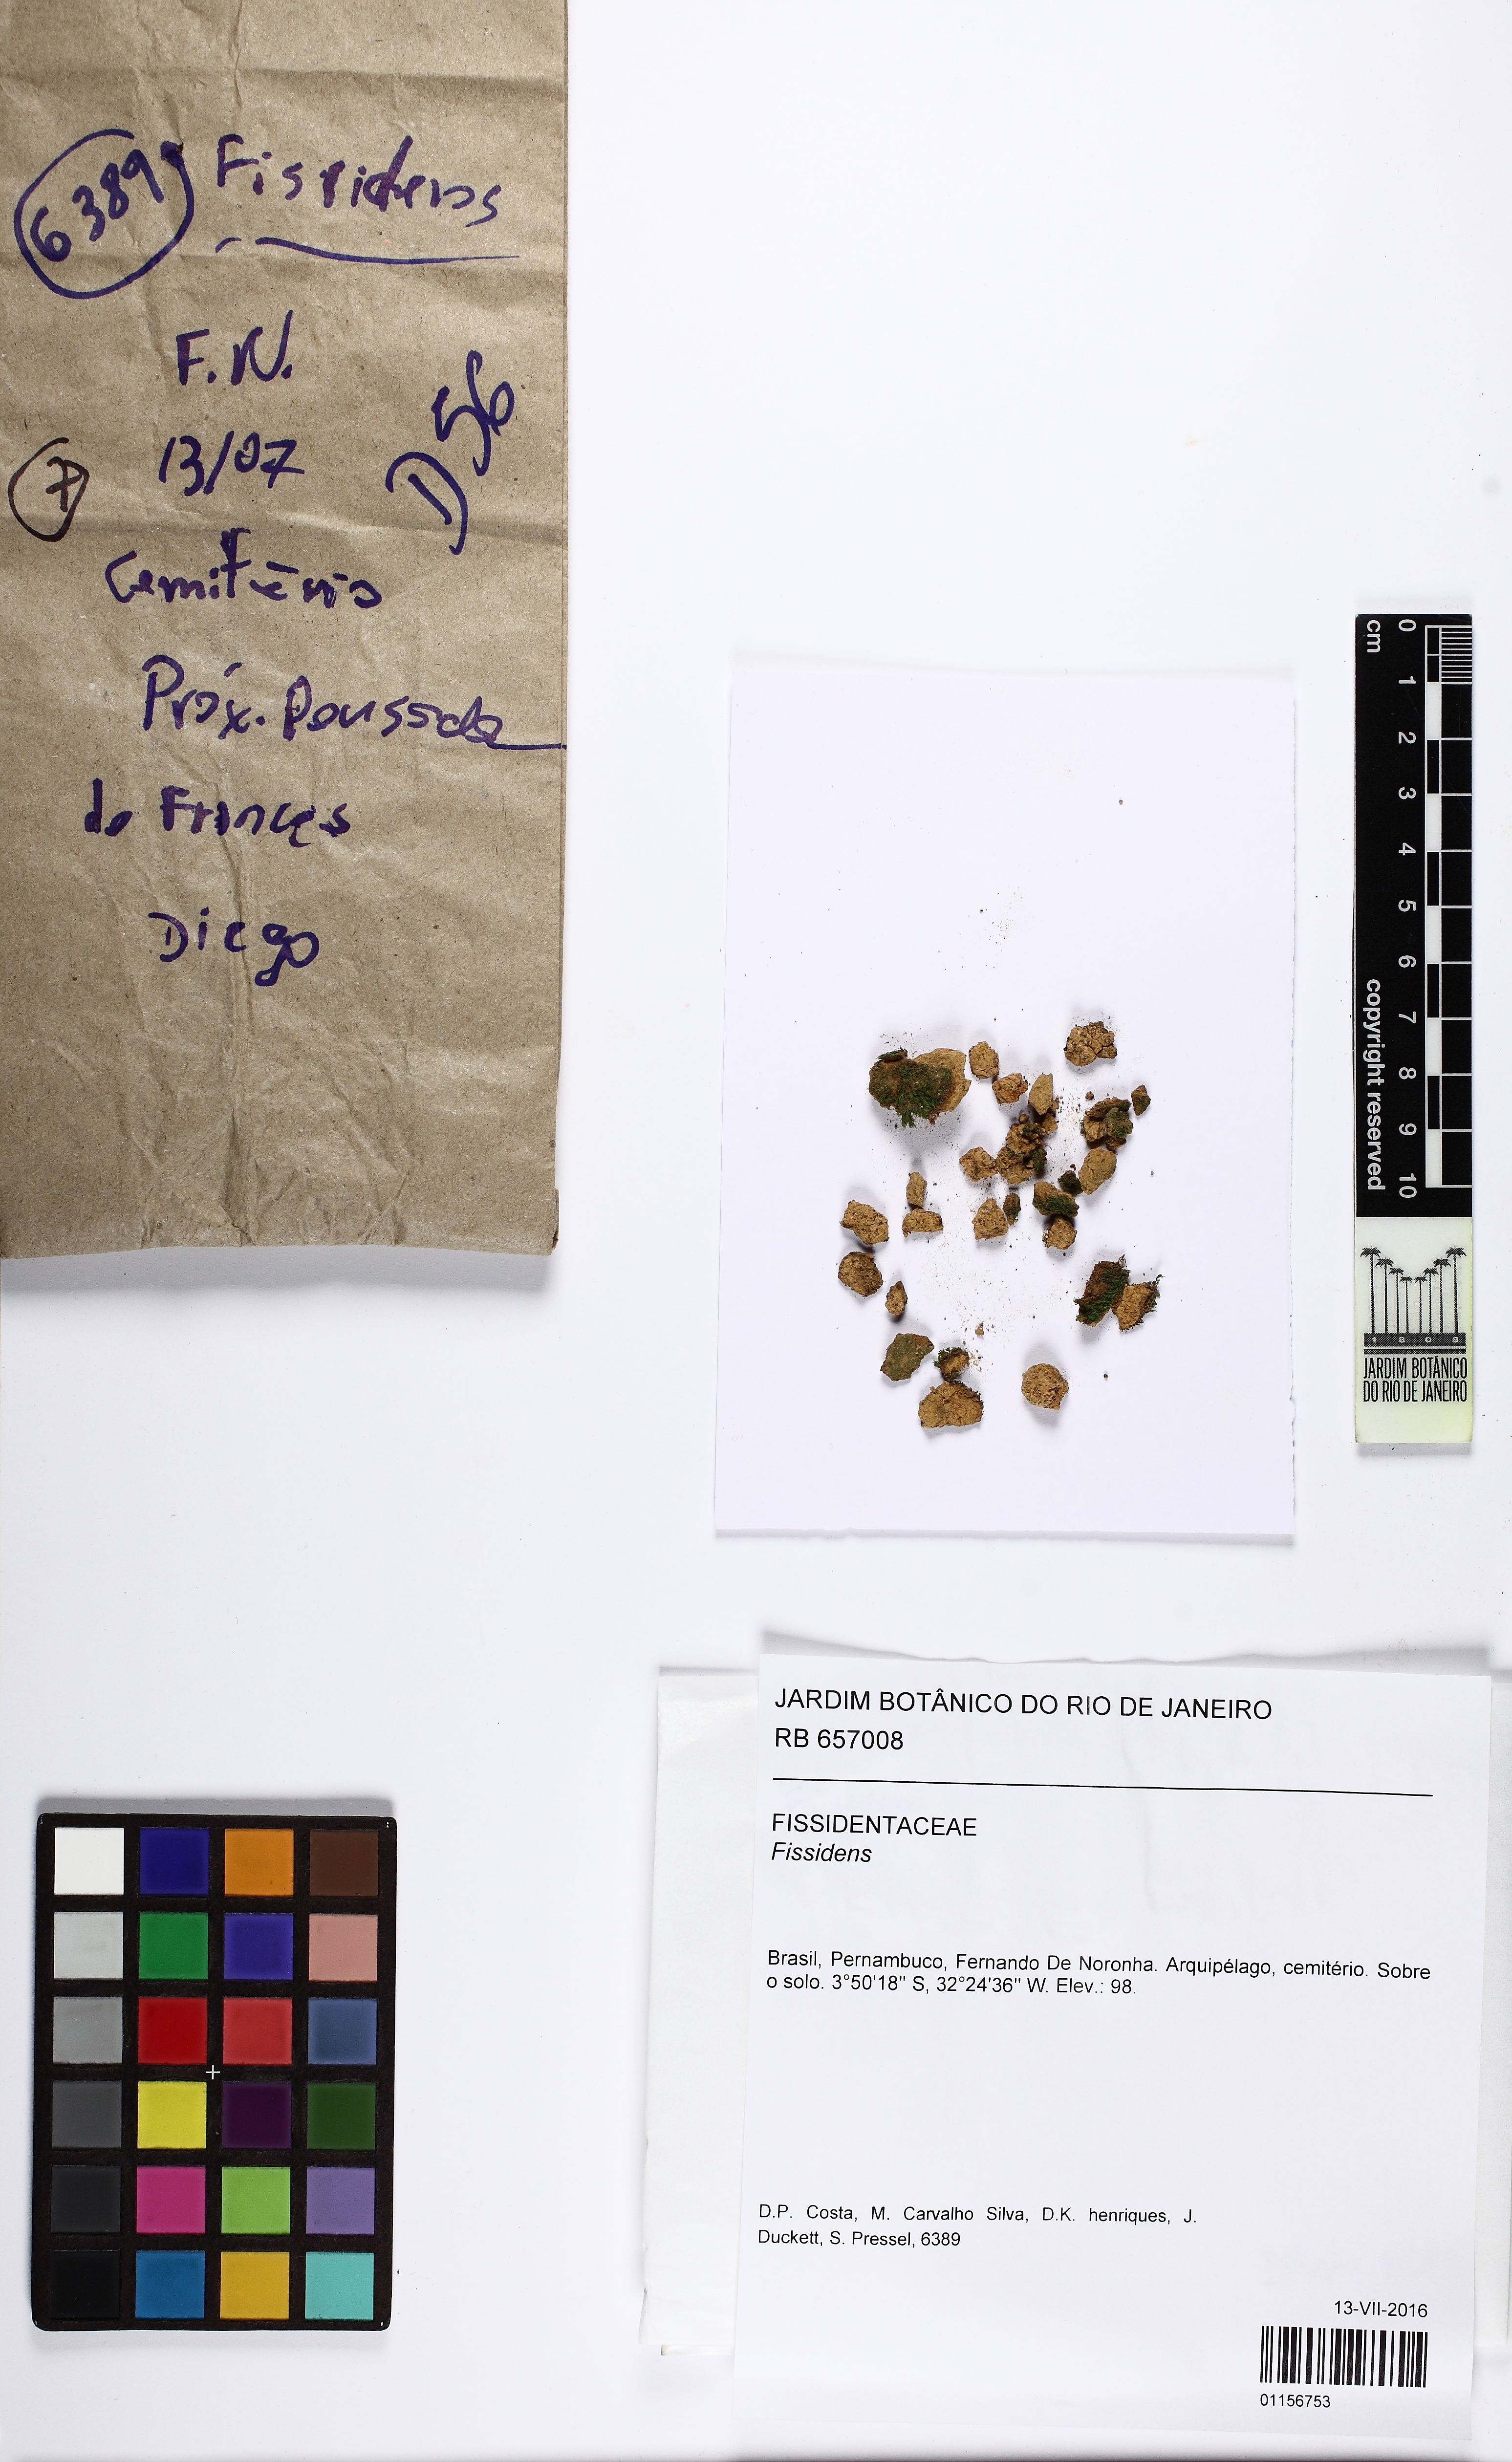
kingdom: Plantae
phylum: Bryophyta
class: Bryopsida
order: Dicranales
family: Fissidentaceae
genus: Fissidens
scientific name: Fissidens
